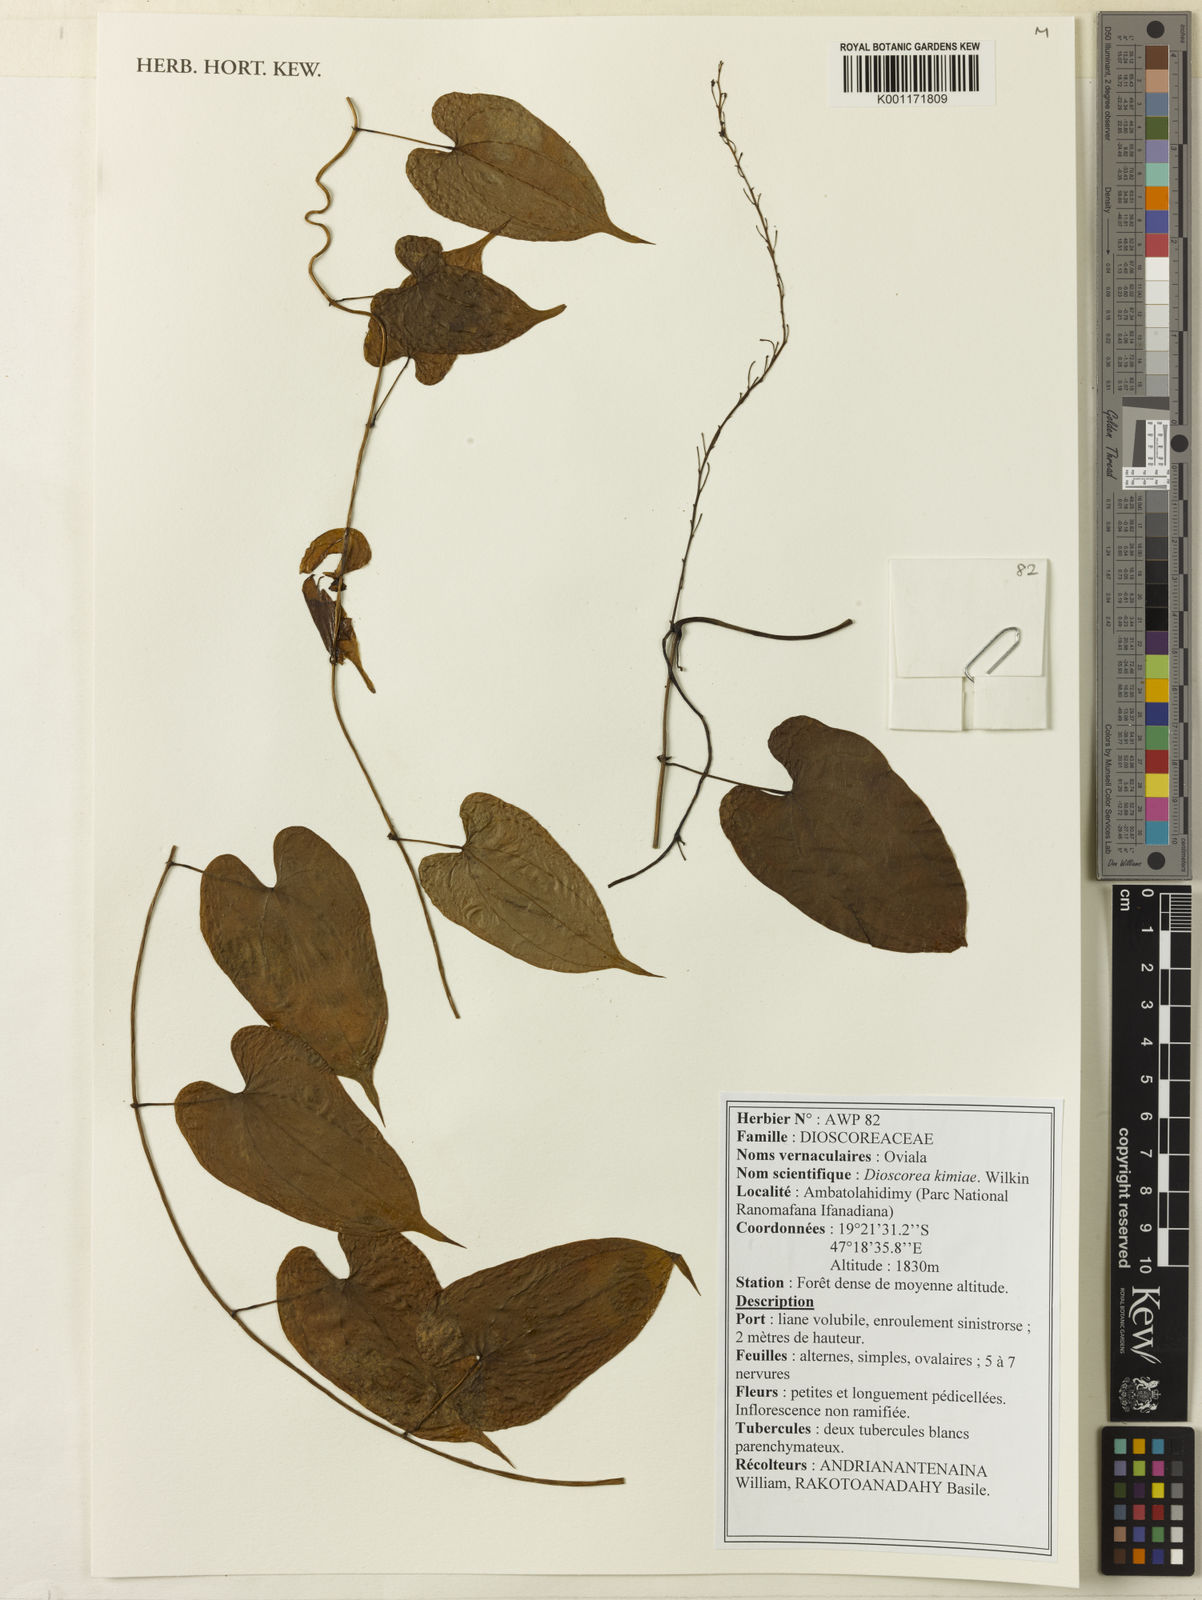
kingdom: Plantae
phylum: Tracheophyta
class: Liliopsida
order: Dioscoreales
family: Dioscoreaceae
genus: Dioscorea
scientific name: Dioscorea kimiae
